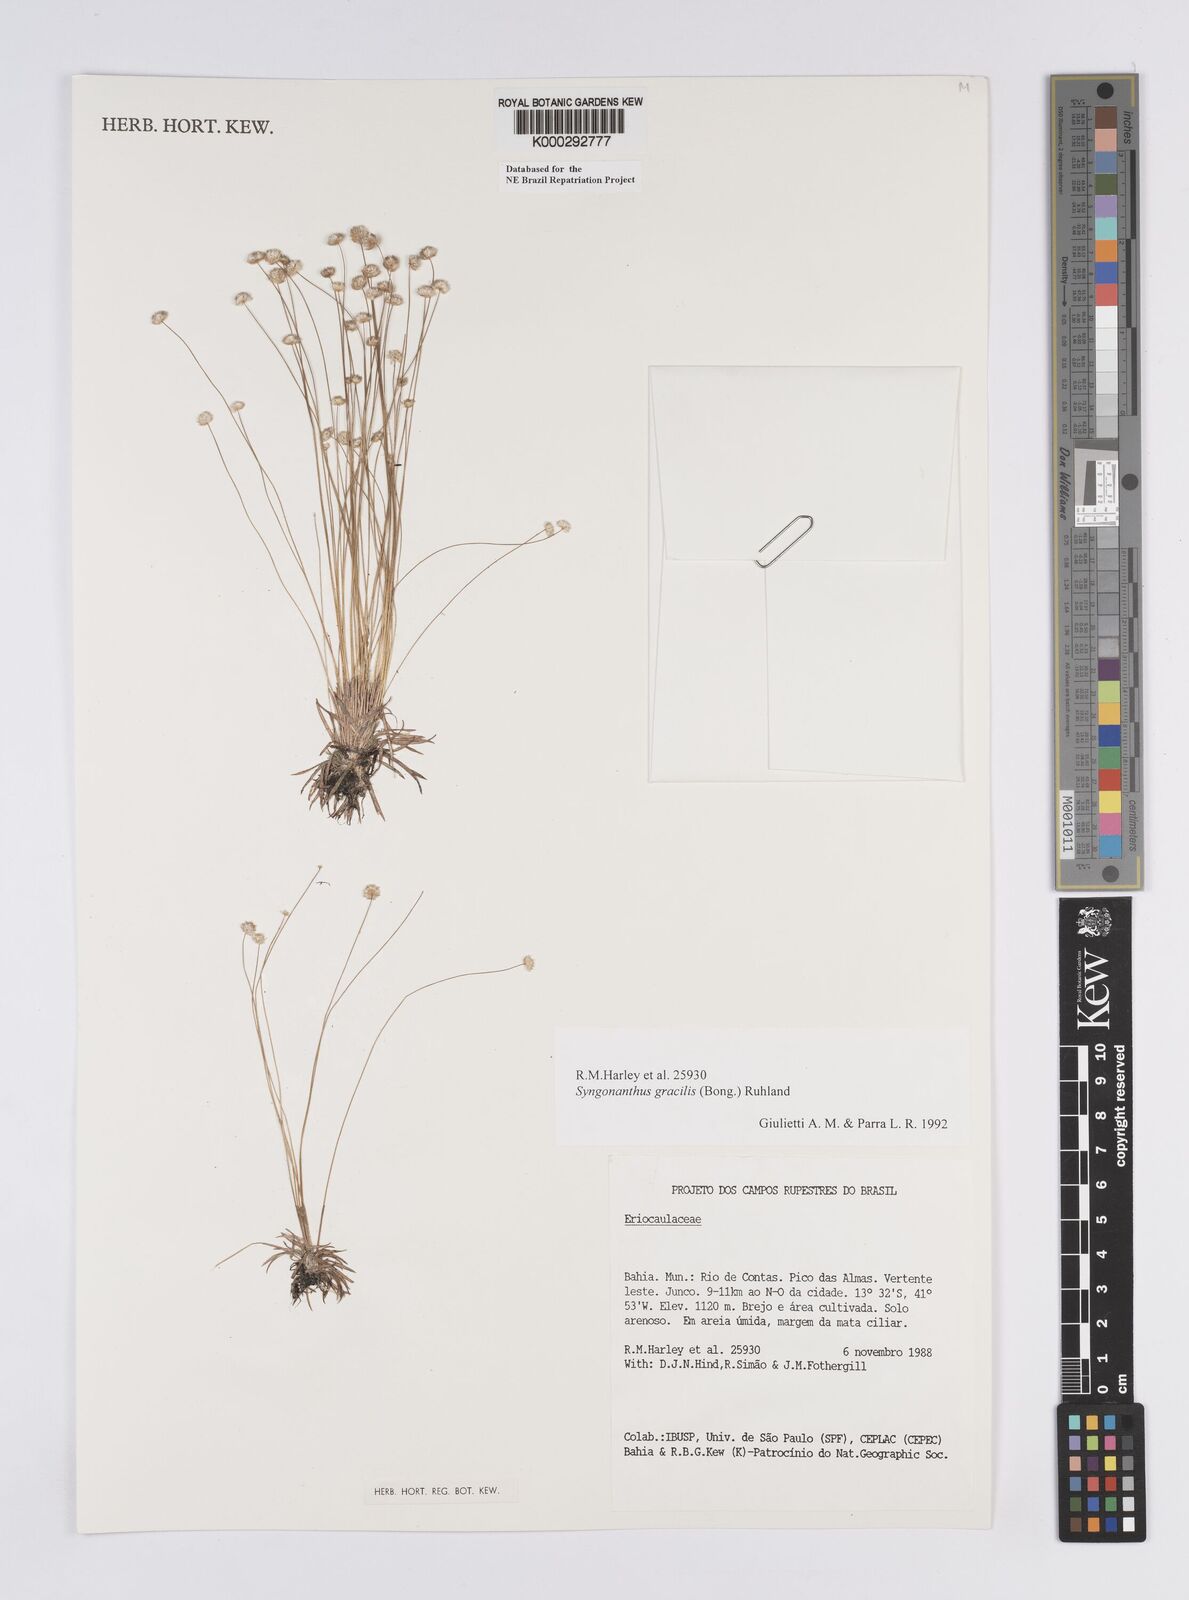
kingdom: Plantae
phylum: Tracheophyta
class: Liliopsida
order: Poales
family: Eriocaulaceae
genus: Syngonanthus
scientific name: Syngonanthus gracilis
